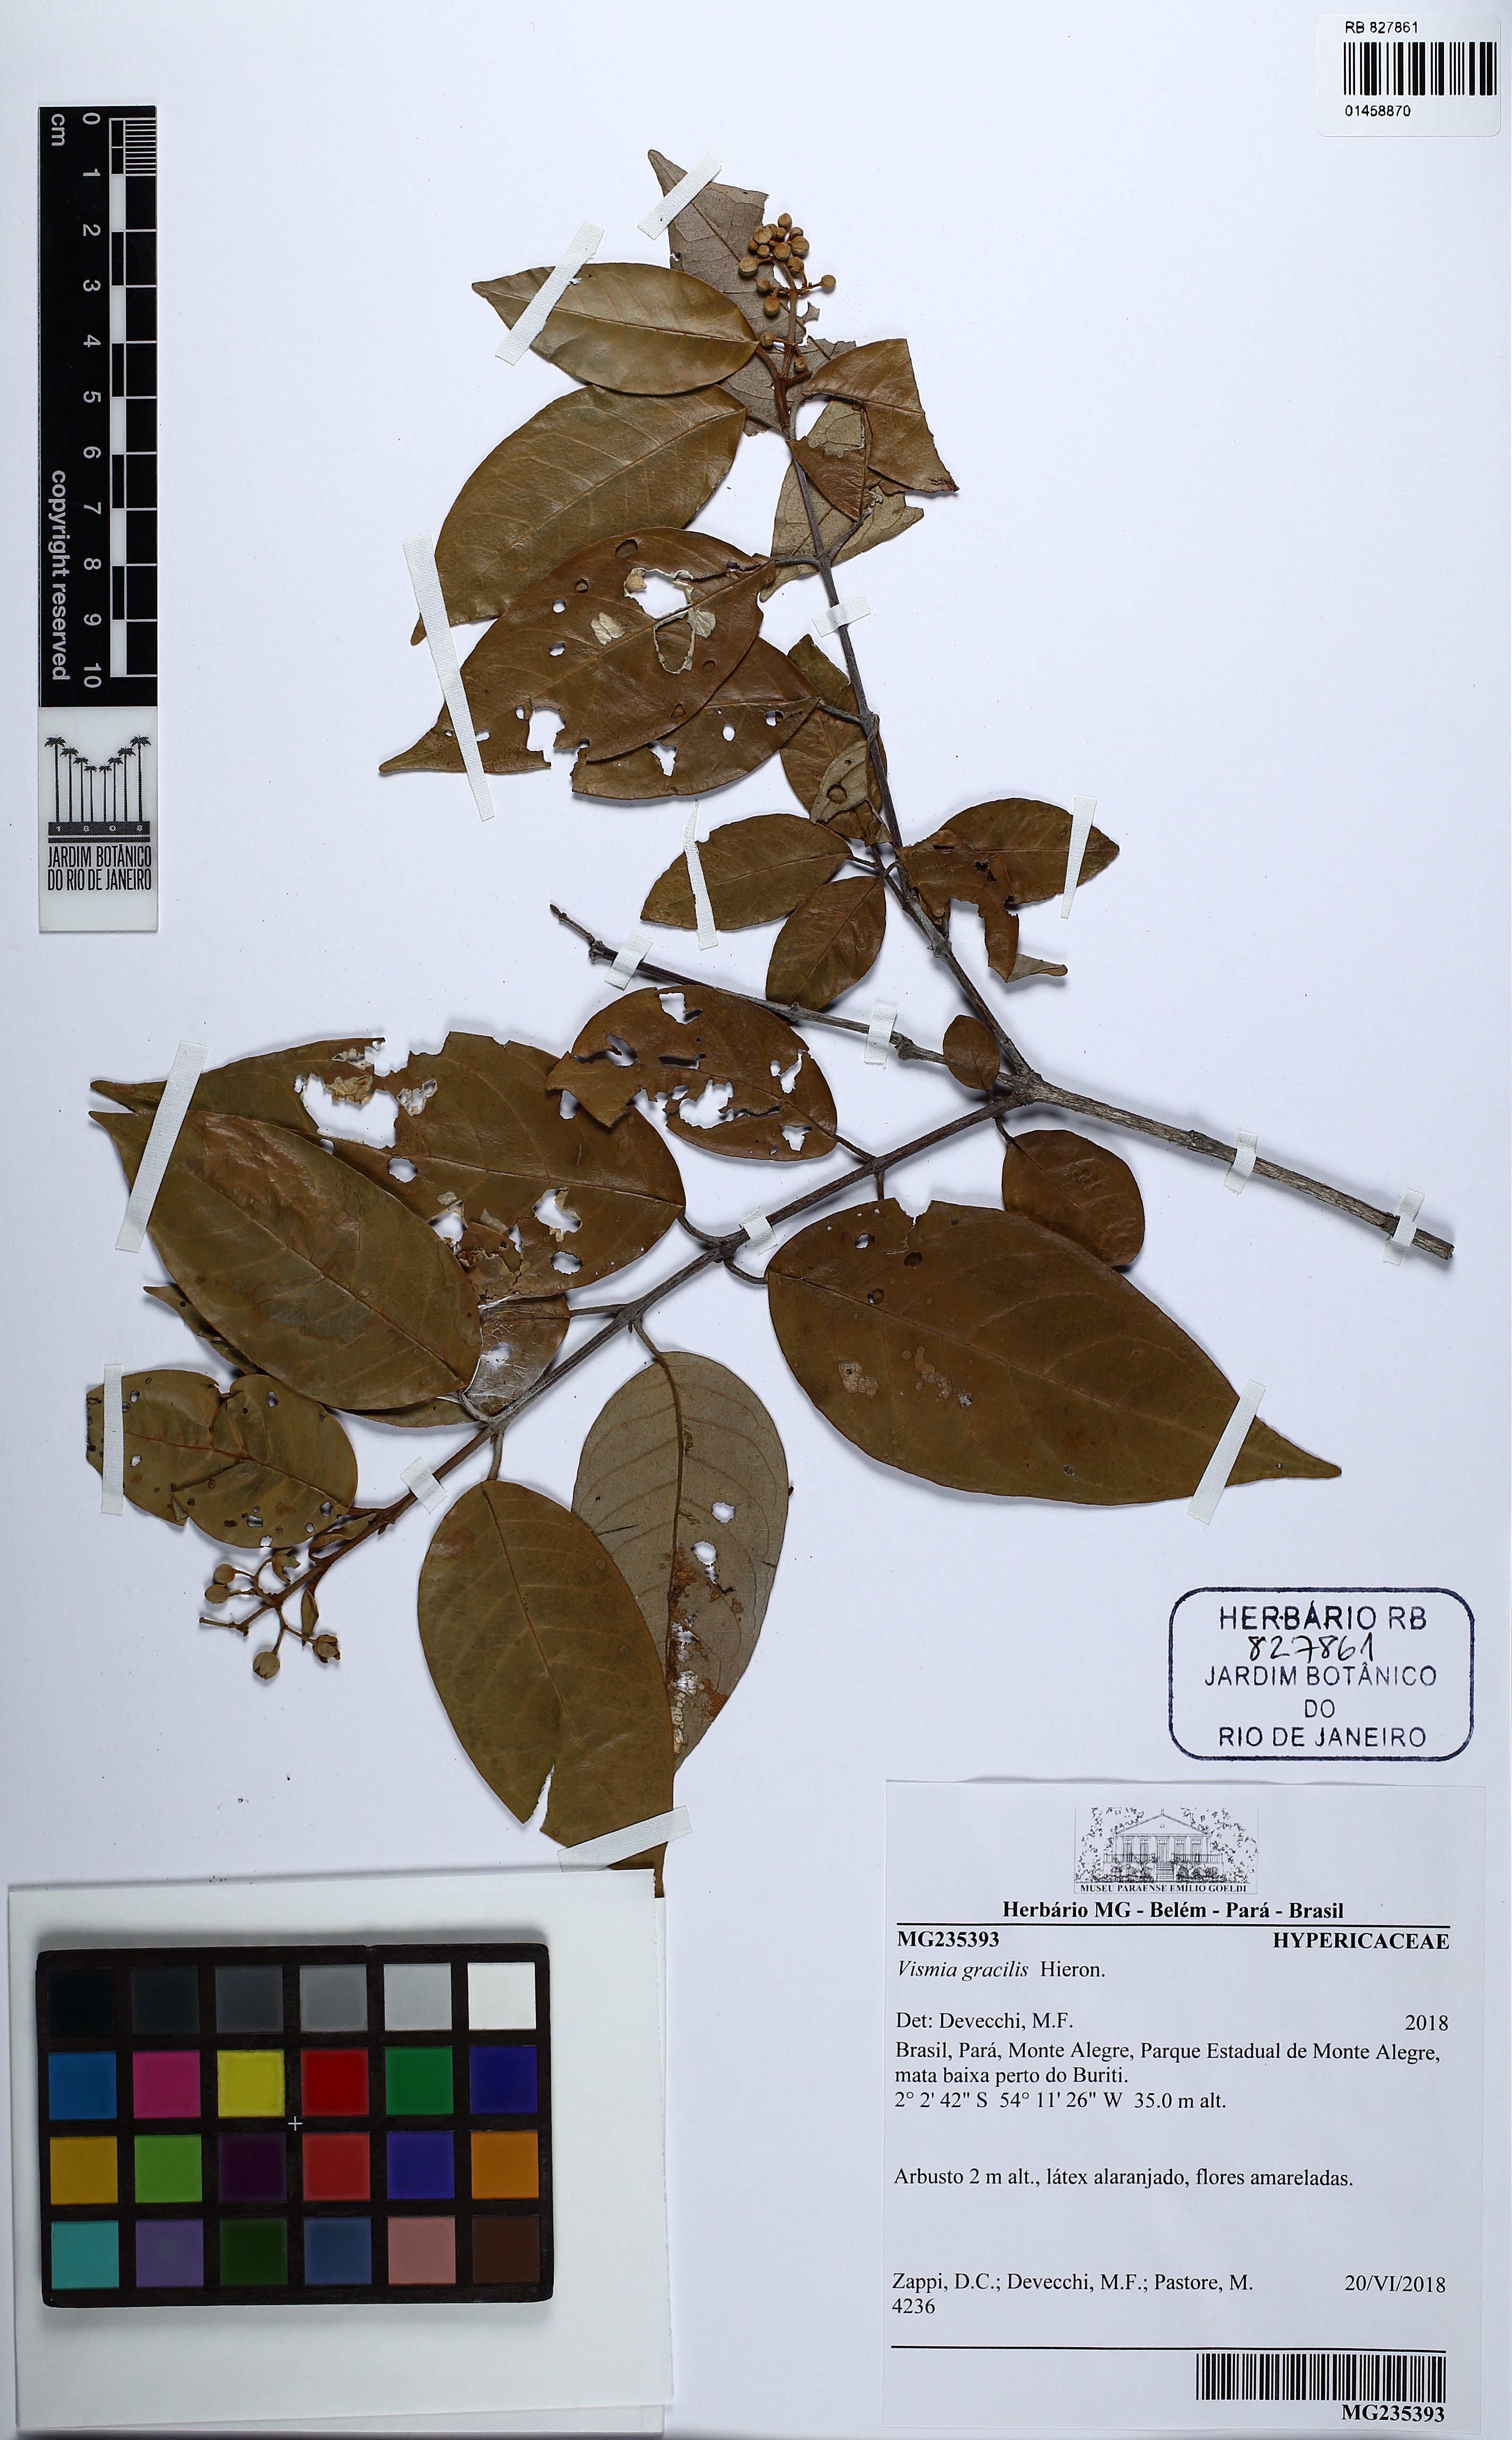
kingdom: Plantae
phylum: Tracheophyta
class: Magnoliopsida
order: Malpighiales
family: Hypericaceae
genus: Vismia
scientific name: Vismia gracilis
